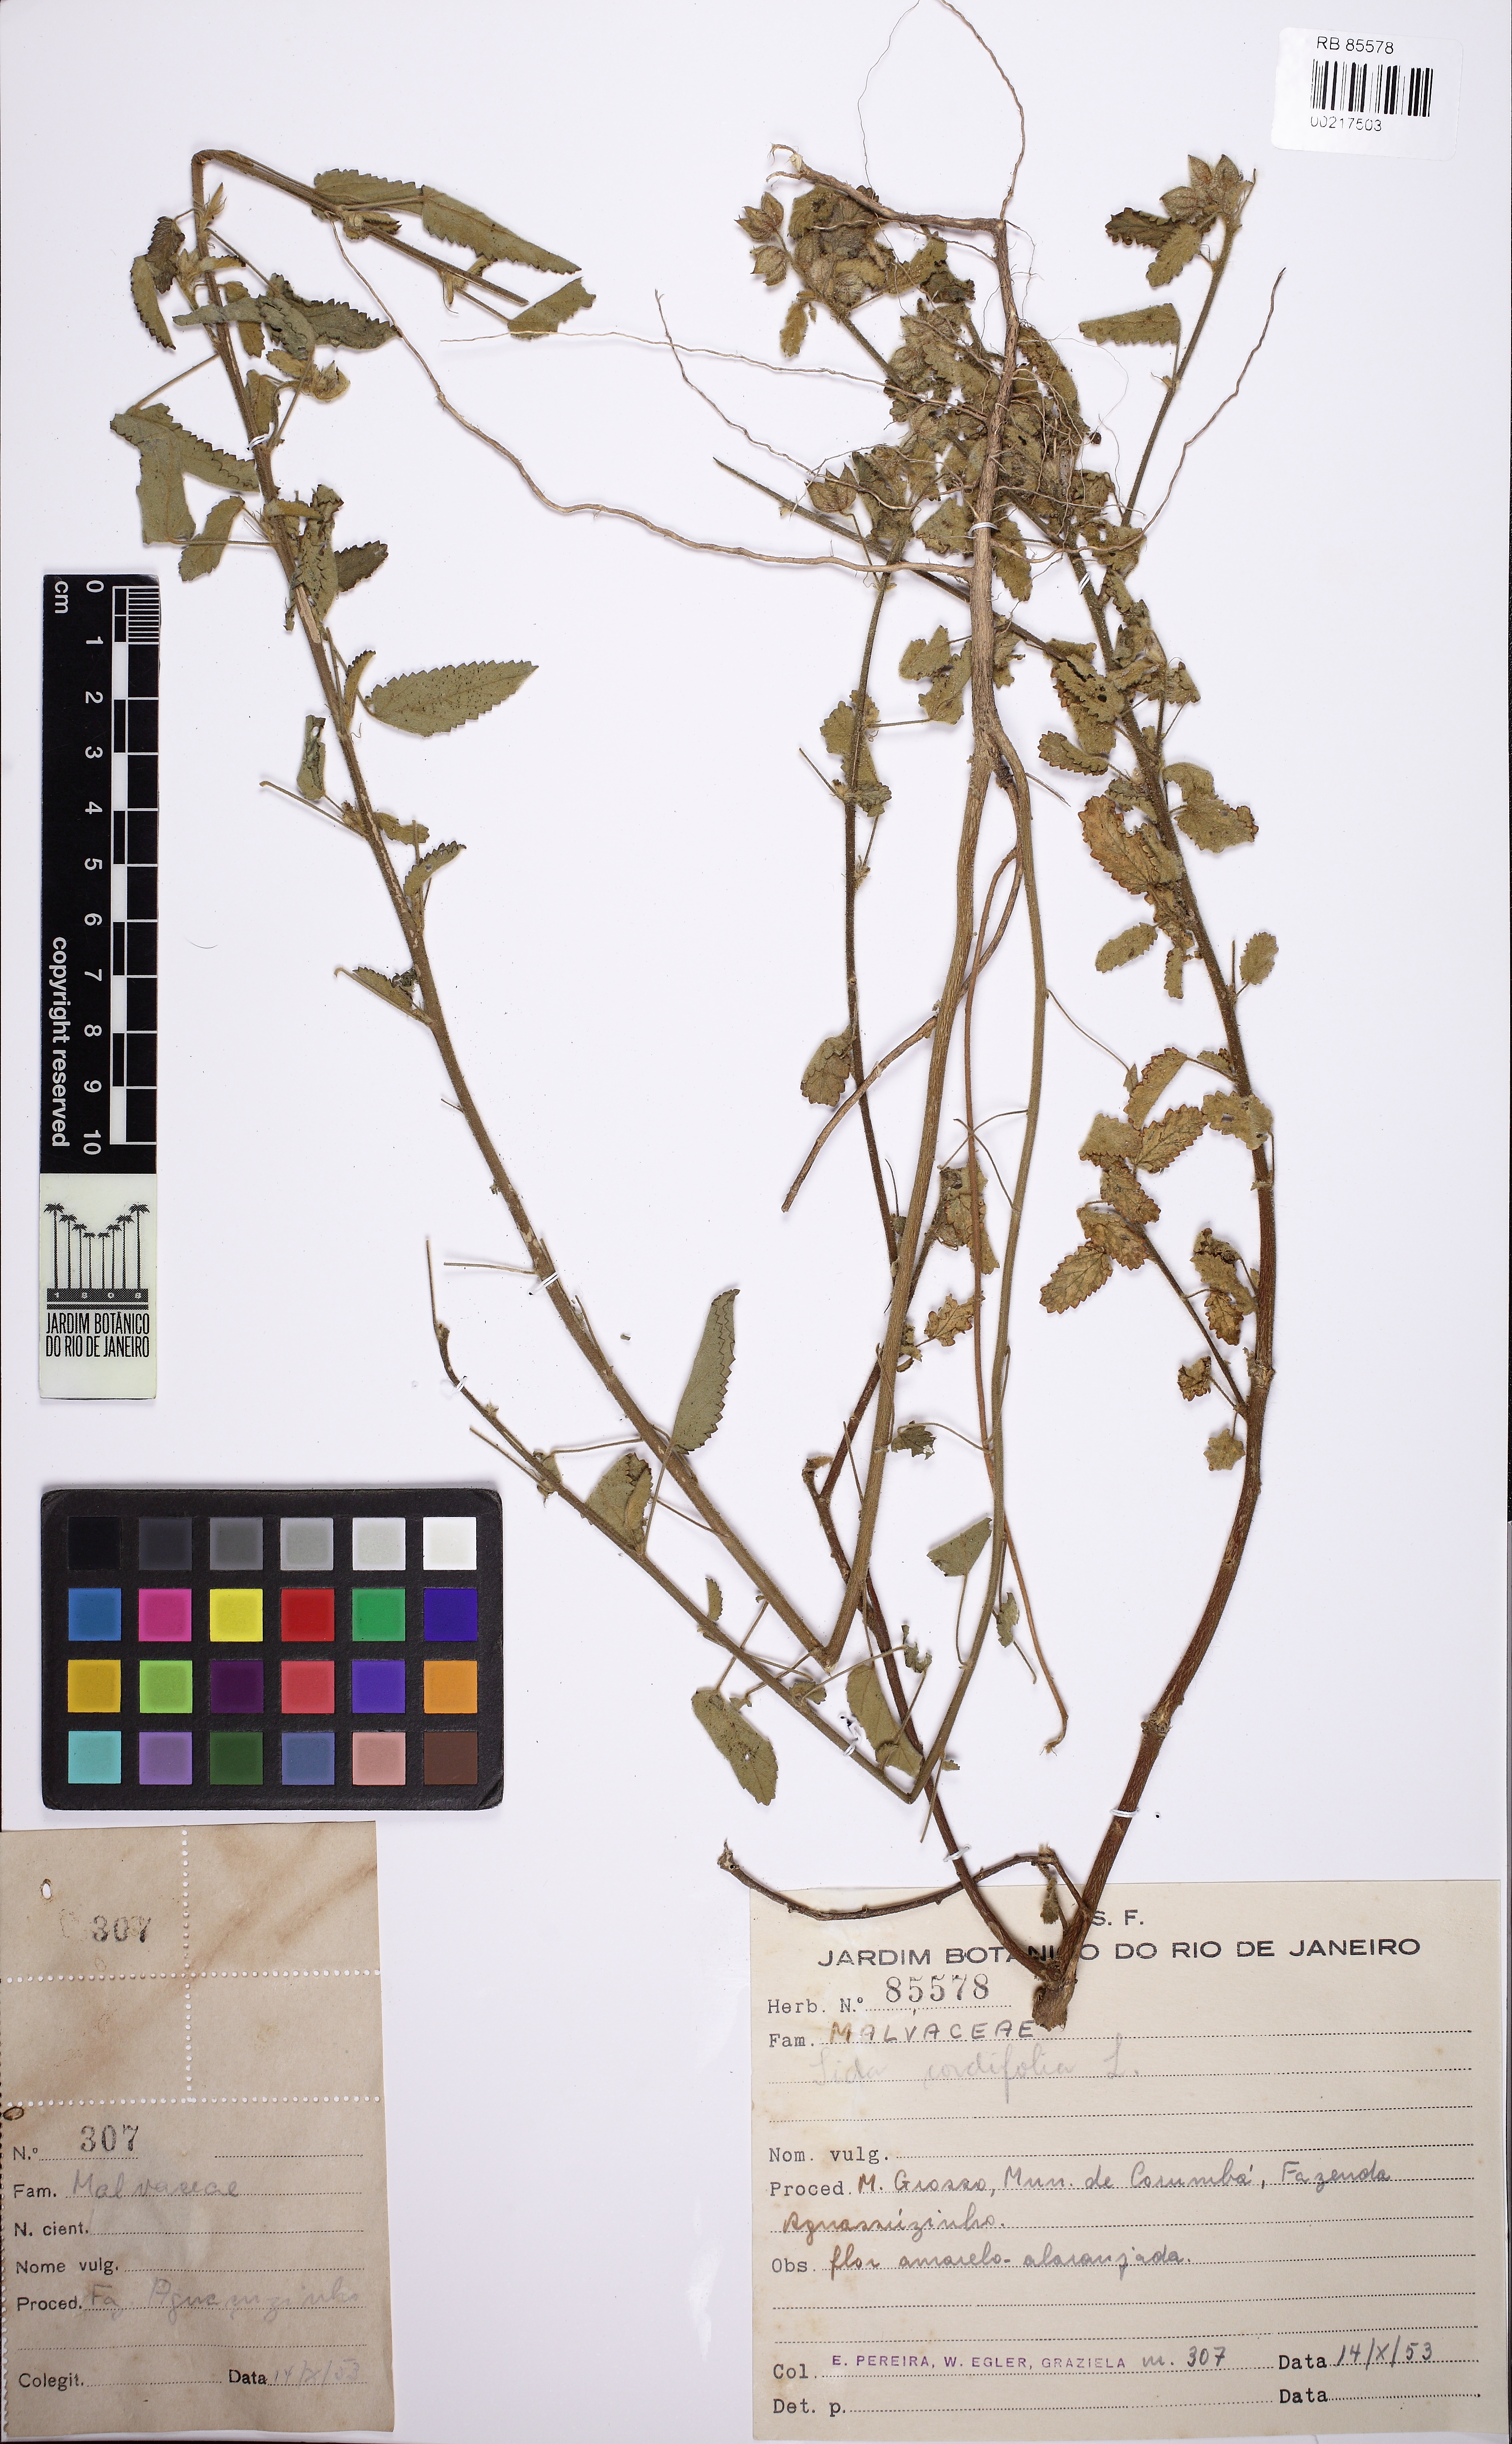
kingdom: Plantae
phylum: Tracheophyta
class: Magnoliopsida
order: Malvales
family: Malvaceae
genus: Sida
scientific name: Sida cordifolia
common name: Ilima
